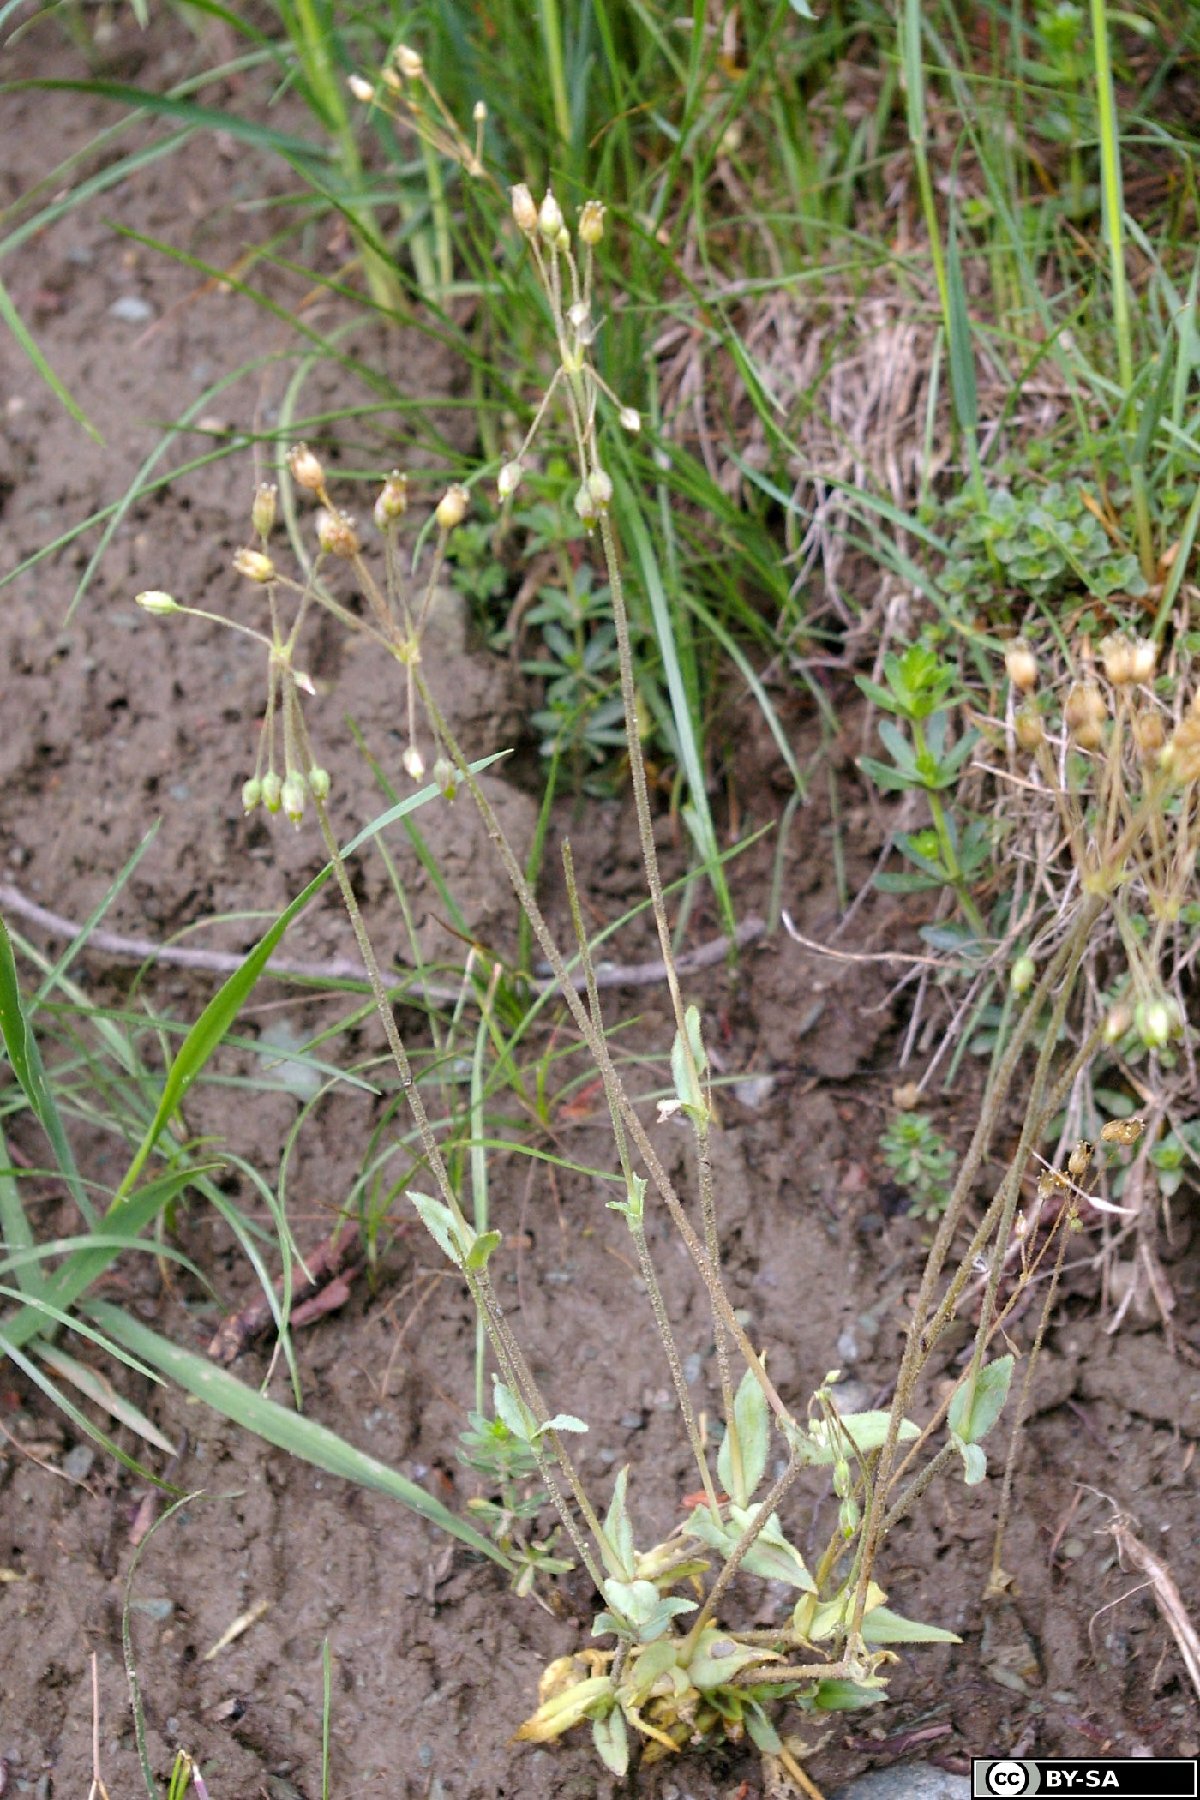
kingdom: Plantae
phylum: Tracheophyta
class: Magnoliopsida
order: Caryophyllales
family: Caryophyllaceae
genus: Holosteum
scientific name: Holosteum umbellatum
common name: Jagged chickweed
